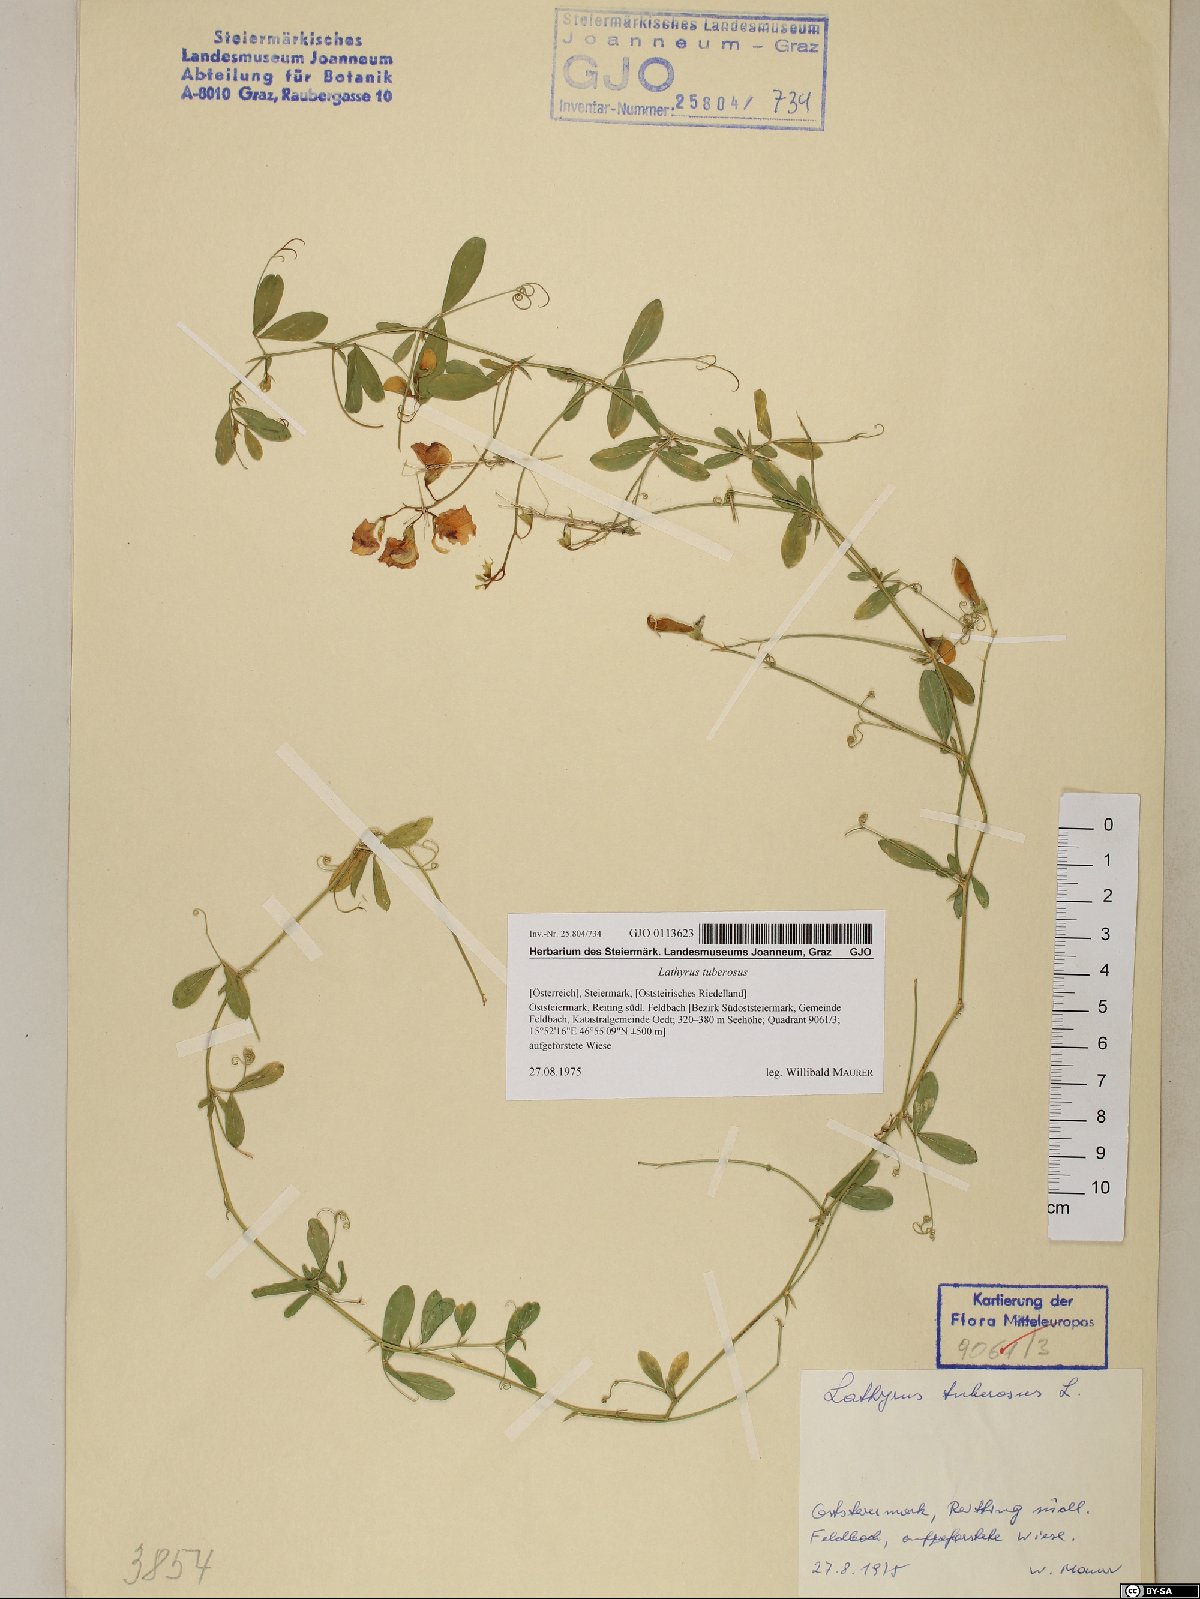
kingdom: Plantae
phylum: Tracheophyta
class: Magnoliopsida
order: Fabales
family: Fabaceae
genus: Lathyrus
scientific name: Lathyrus tuberosus
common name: Tuberous pea
